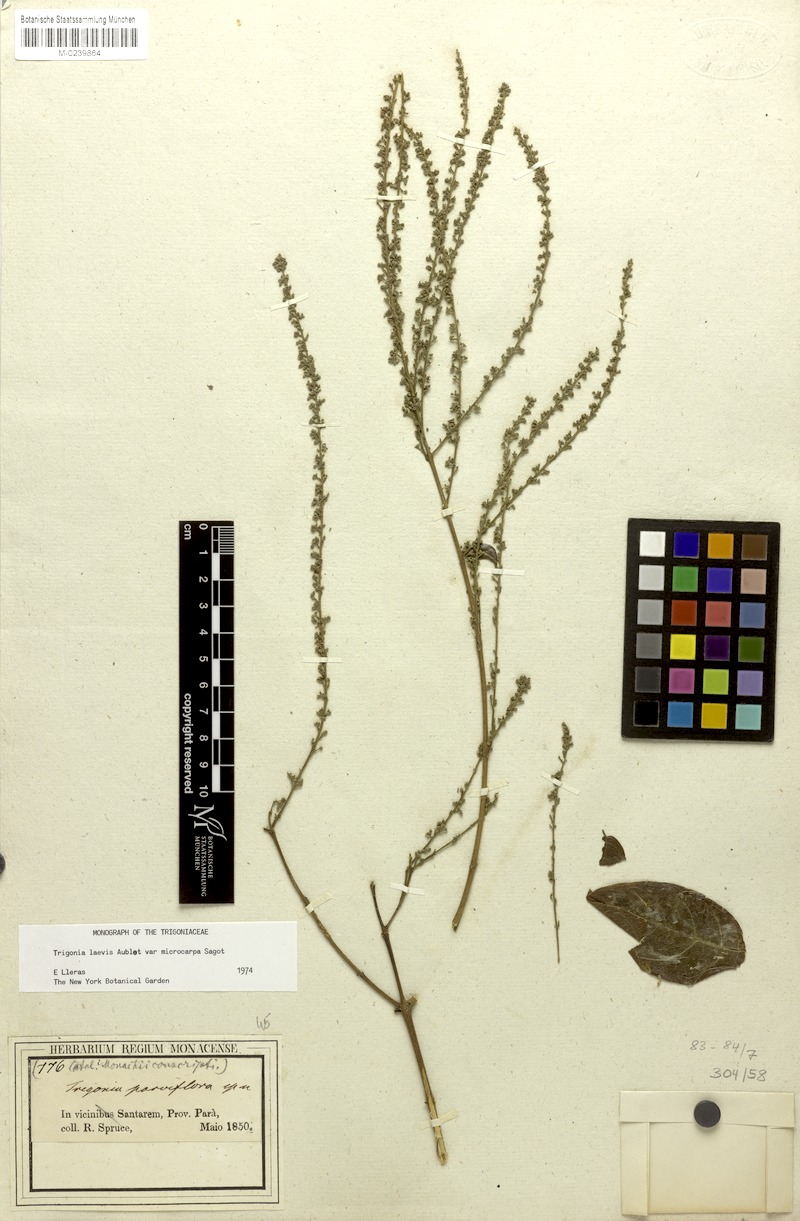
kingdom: Plantae
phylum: Tracheophyta
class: Magnoliopsida
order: Malpighiales
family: Trigoniaceae
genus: Trigonia
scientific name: Trigonia microcarpa
